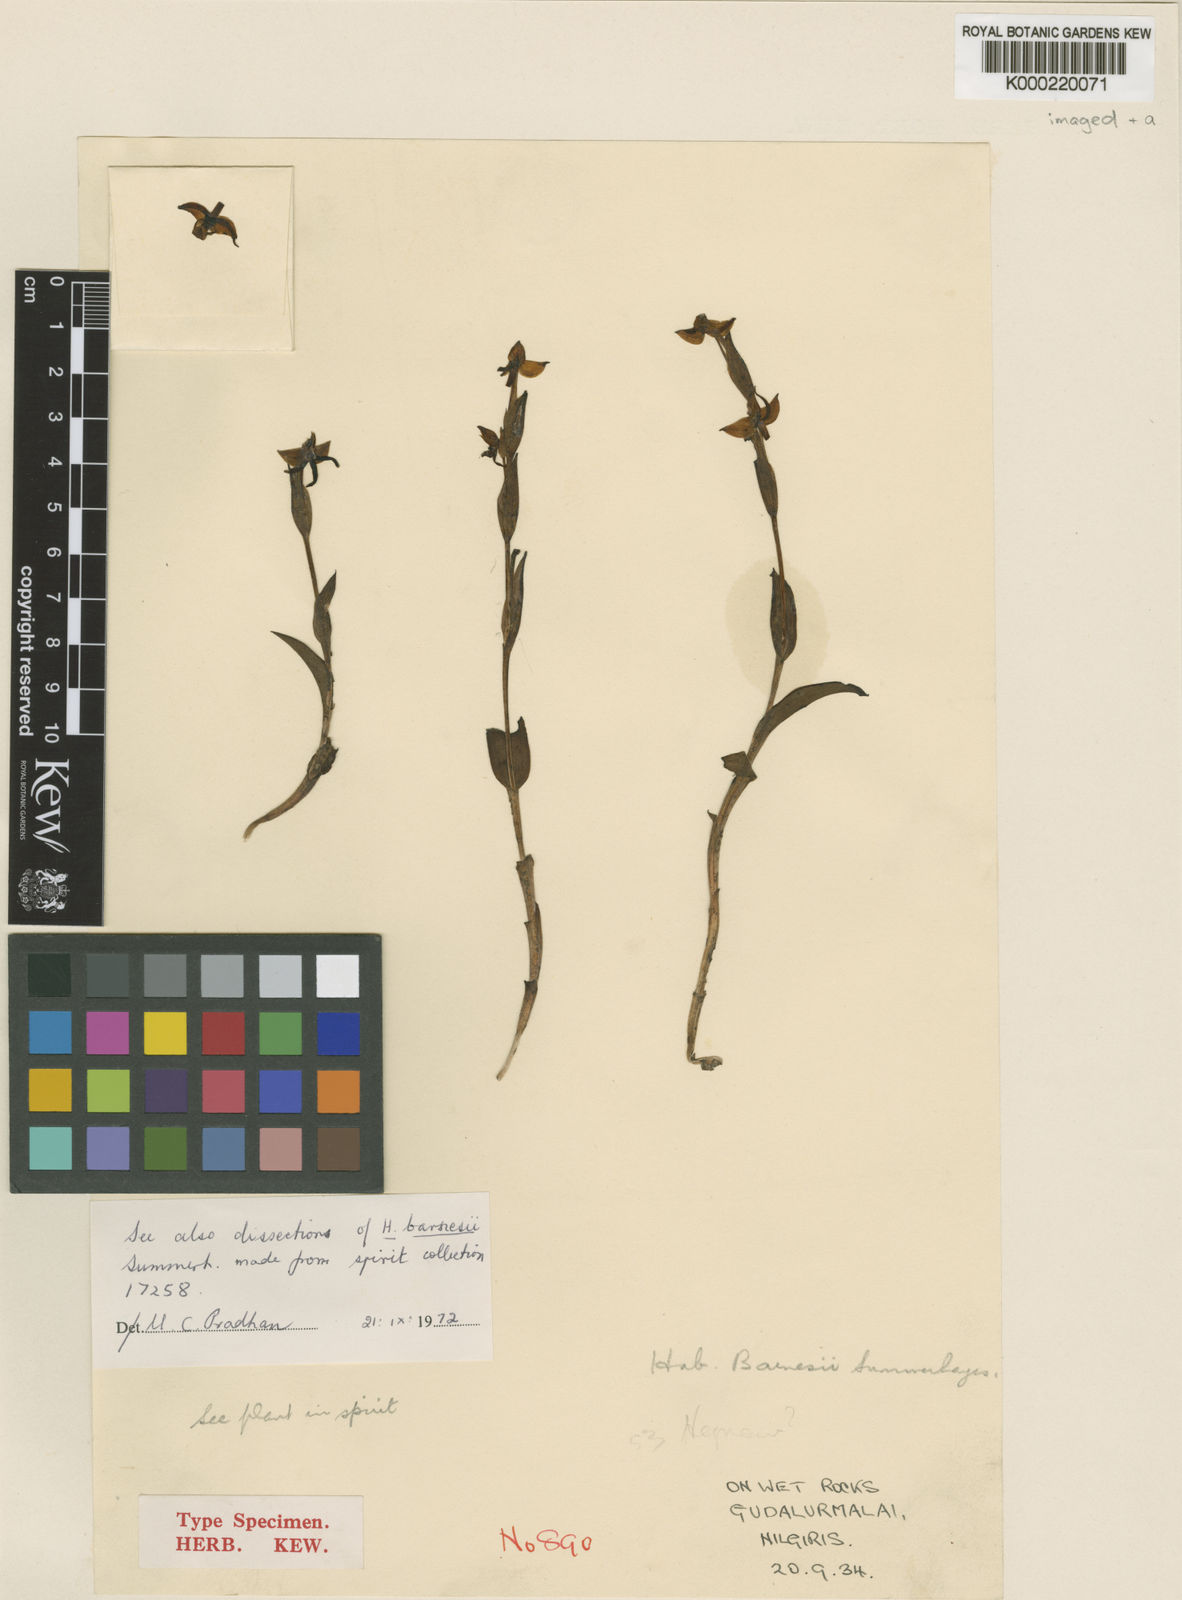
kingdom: Plantae
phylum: Tracheophyta
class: Liliopsida
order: Asparagales
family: Orchidaceae
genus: Herminium
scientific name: Herminium albomarginatum
